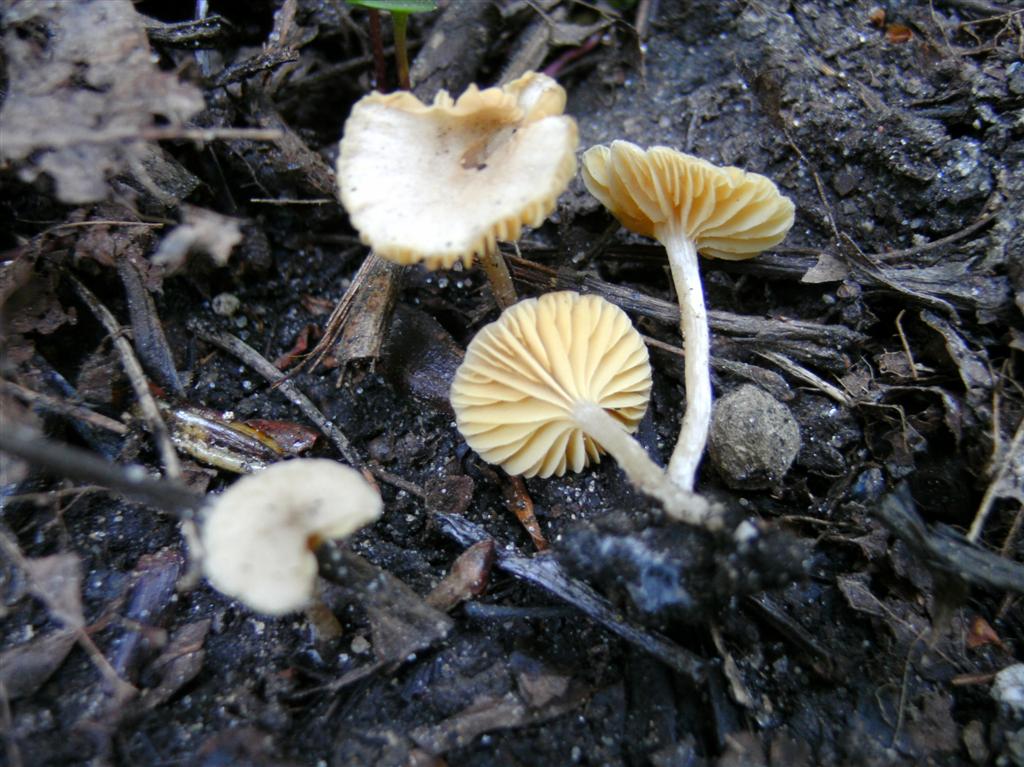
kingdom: Fungi
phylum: Basidiomycota
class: Agaricomycetes
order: Agaricales
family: Tubariaceae
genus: Tubaria
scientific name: Tubaria dispersa
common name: tjørne-fnughat
